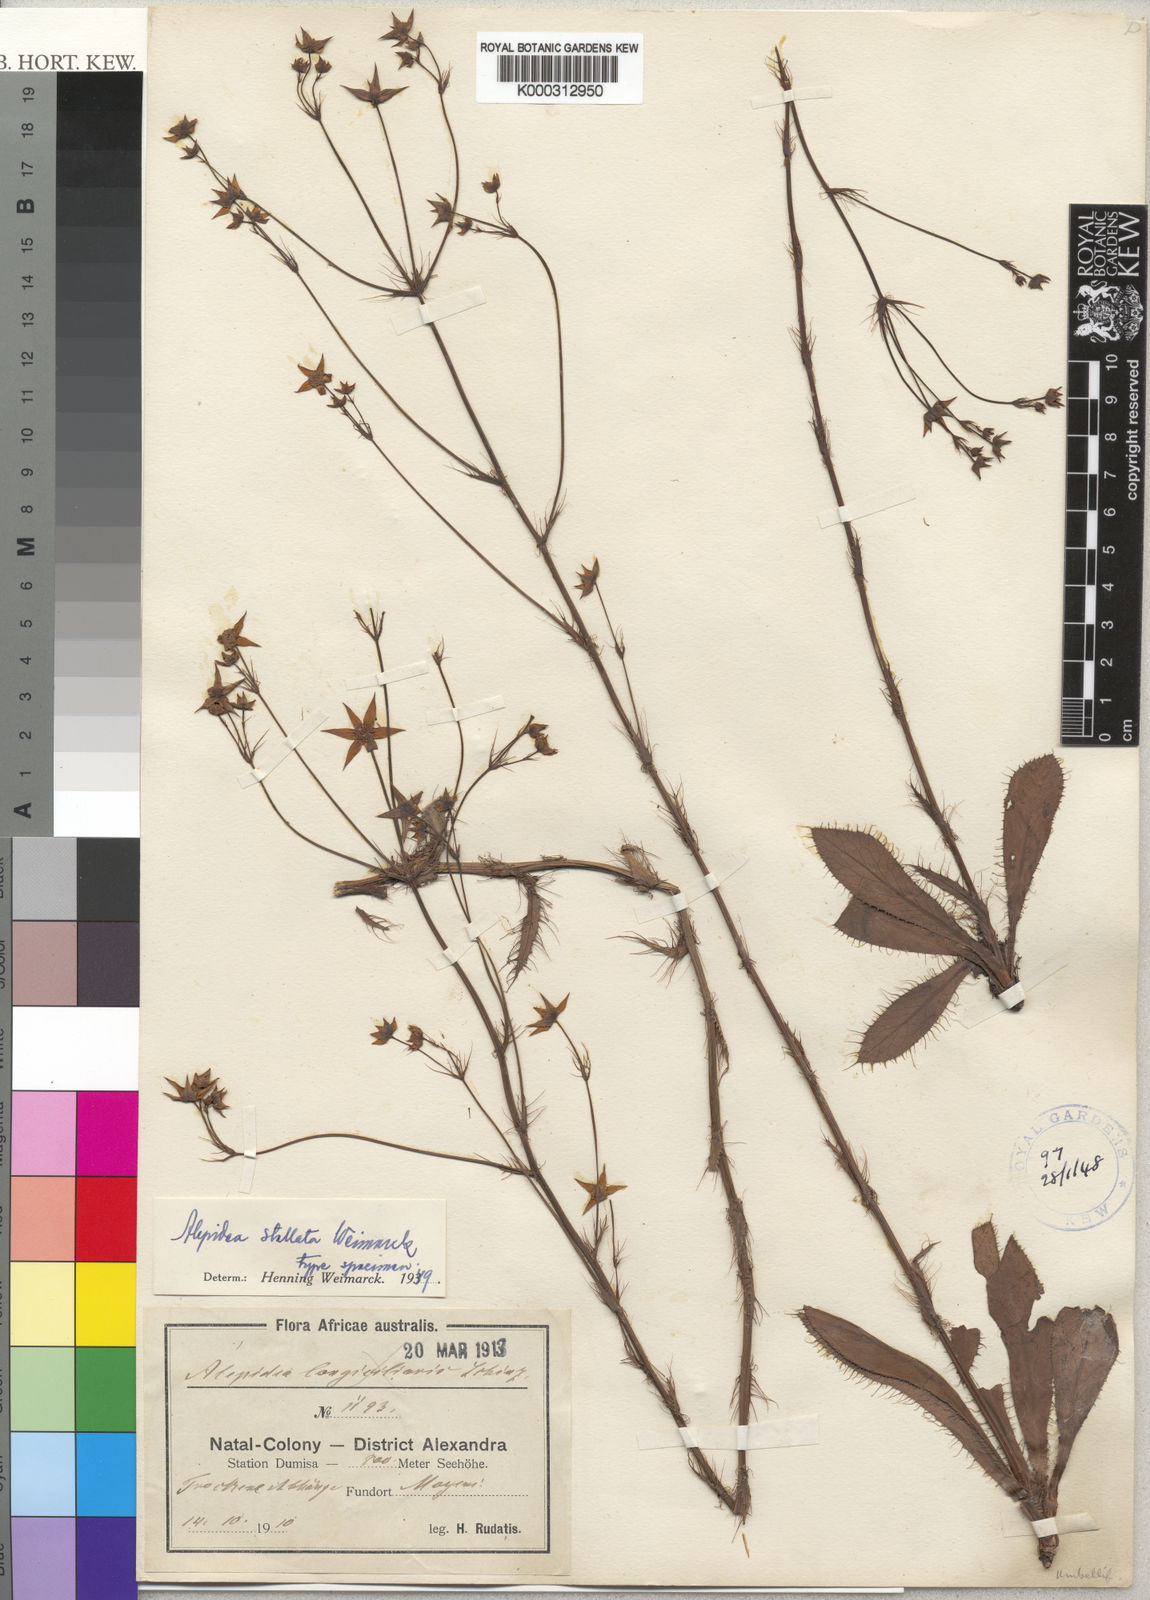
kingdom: Plantae
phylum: Tracheophyta
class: Magnoliopsida
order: Apiales
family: Apiaceae
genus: Alepidea
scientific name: Alepidea stellata
